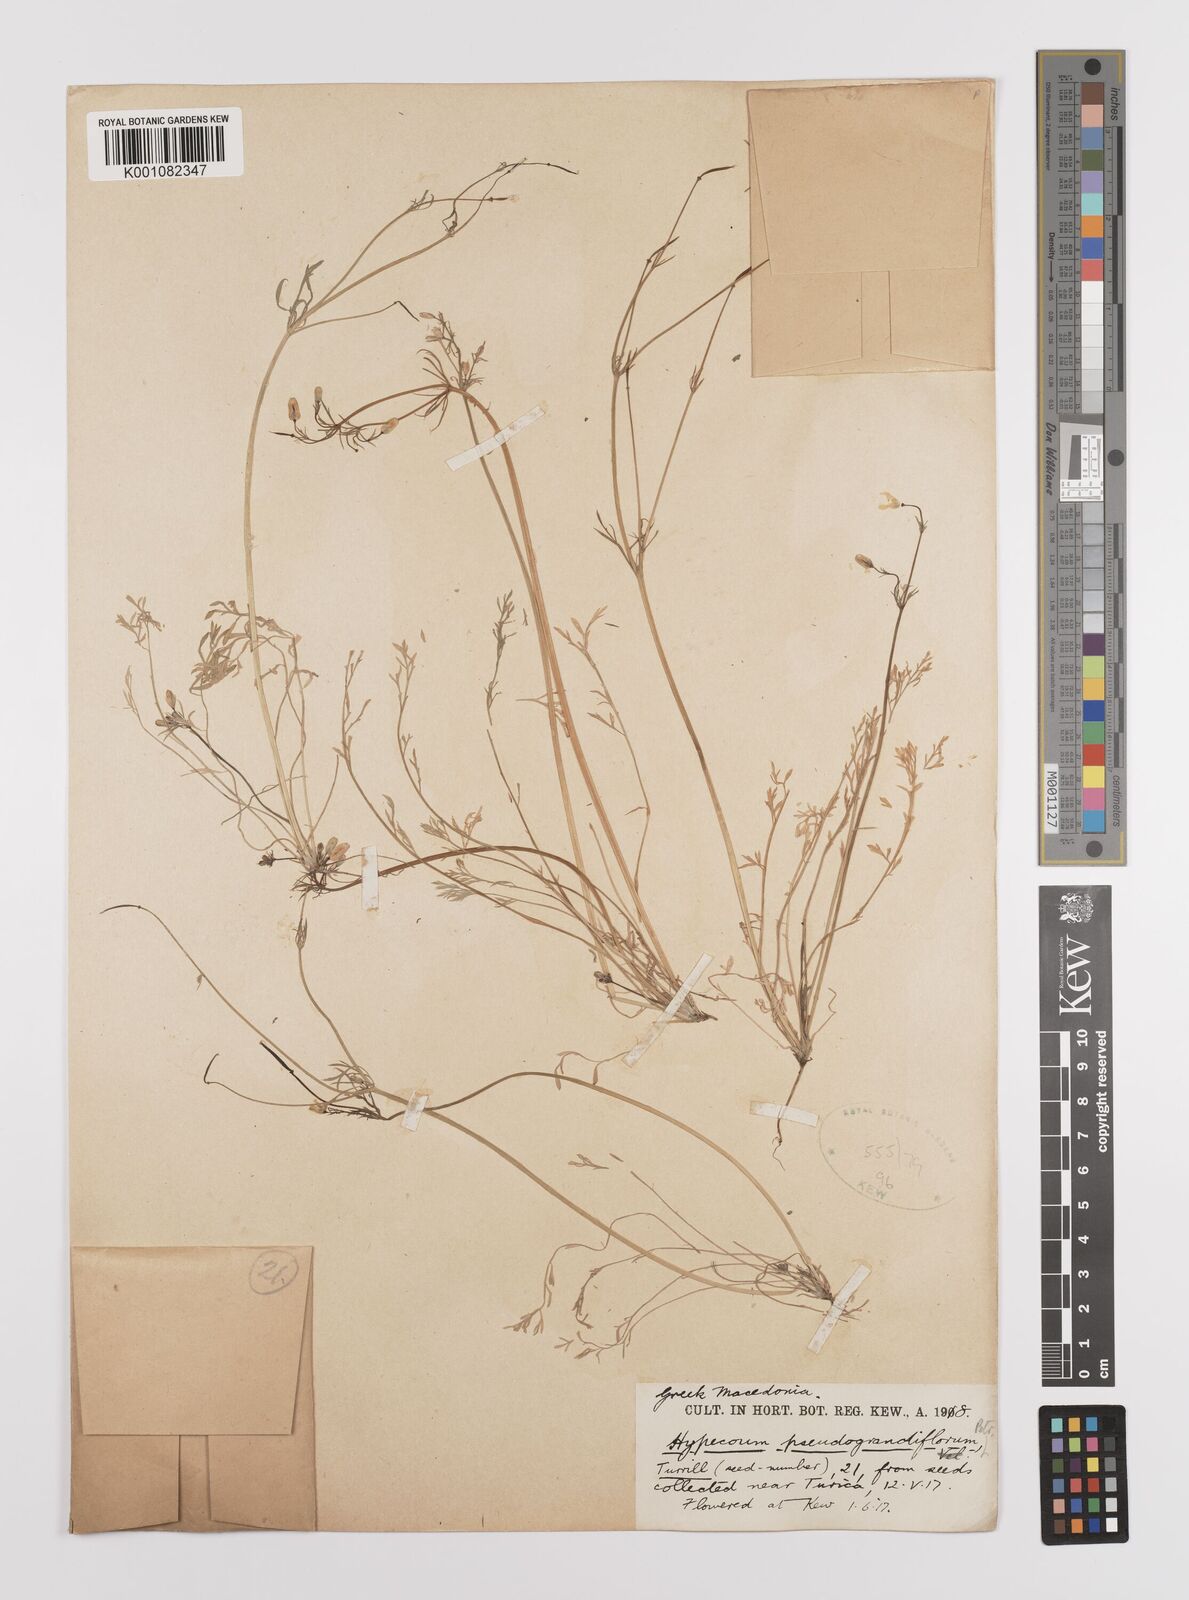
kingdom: Plantae
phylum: Tracheophyta
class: Magnoliopsida
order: Ranunculales
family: Papaveraceae
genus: Hypecoum
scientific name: Hypecoum imberbe
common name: Sicklefruit hypecoum
